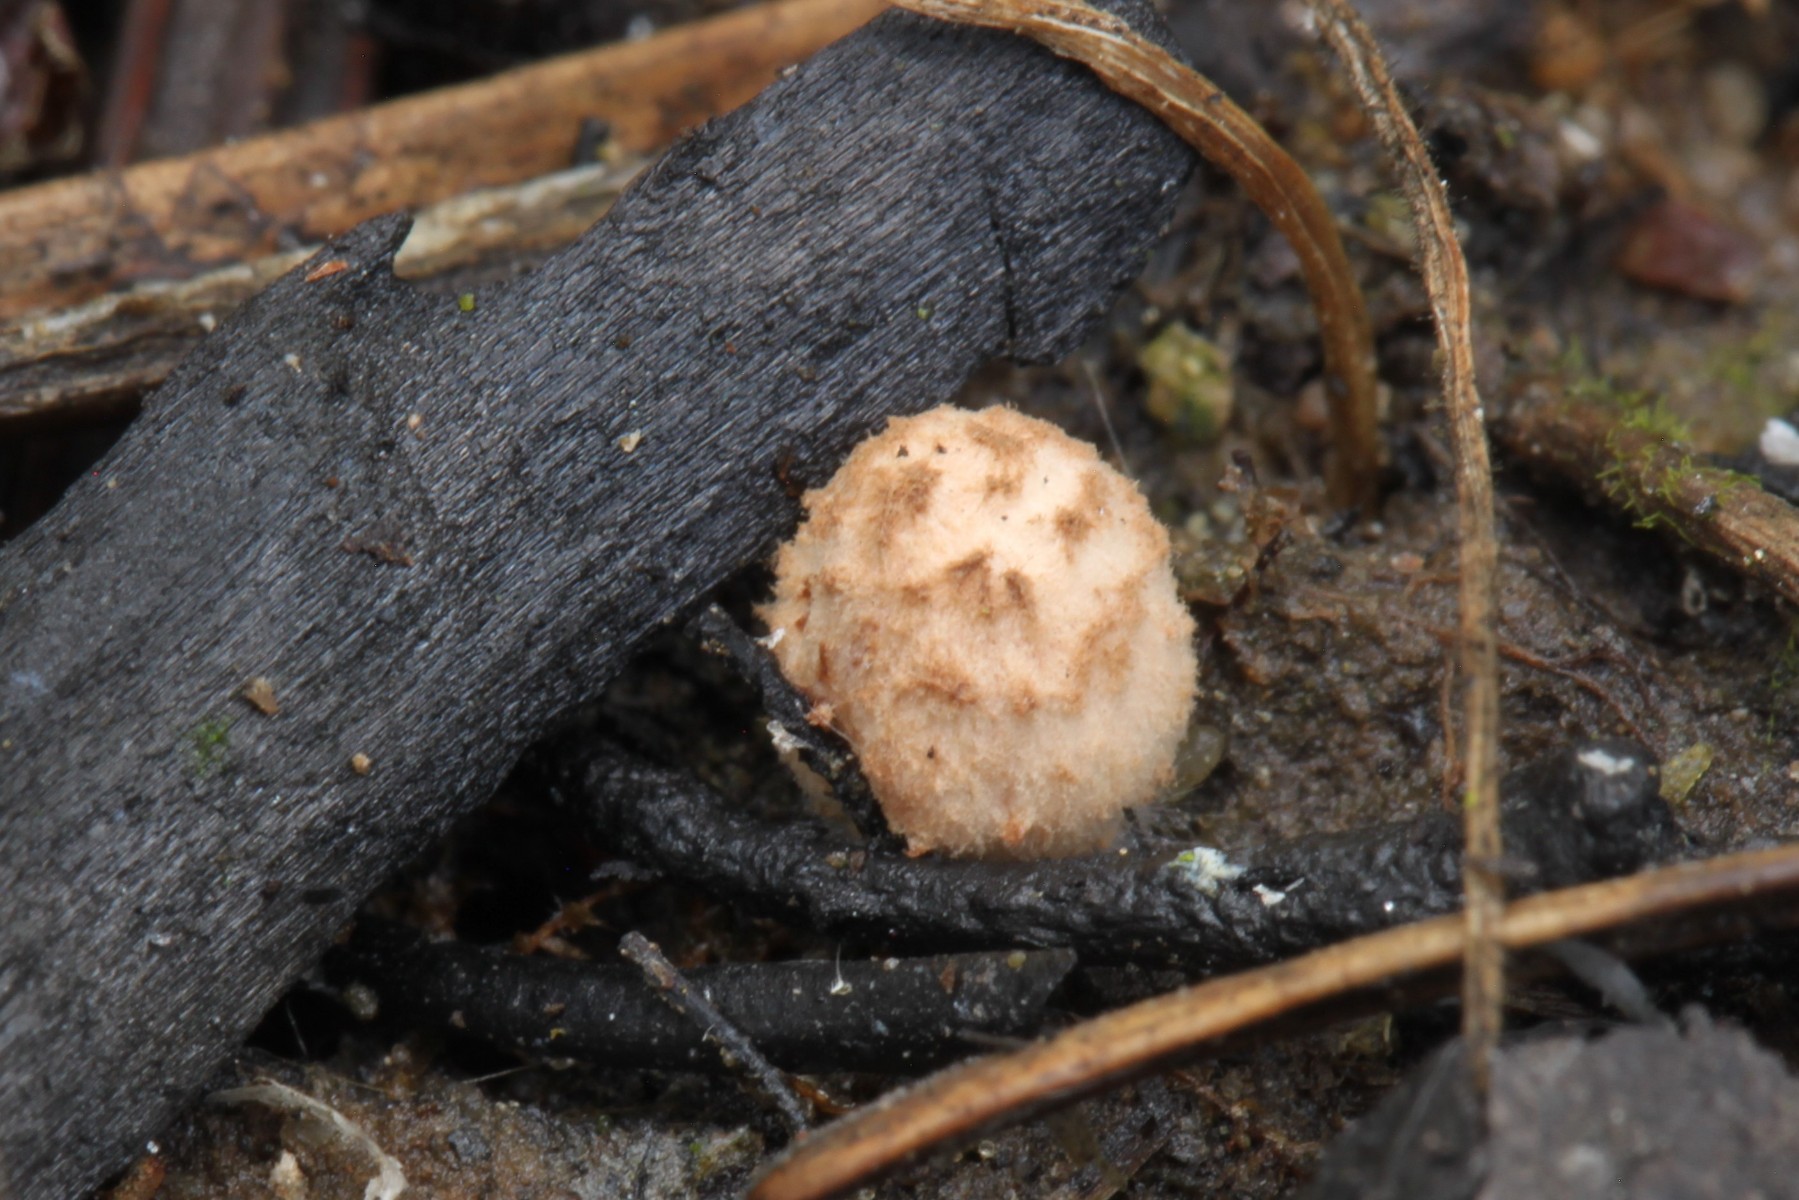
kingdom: Fungi
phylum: Basidiomycota
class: Agaricomycetes
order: Agaricales
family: Psathyrellaceae
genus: Coprinopsis
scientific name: Coprinopsis gonophylla
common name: bål-blækhat
